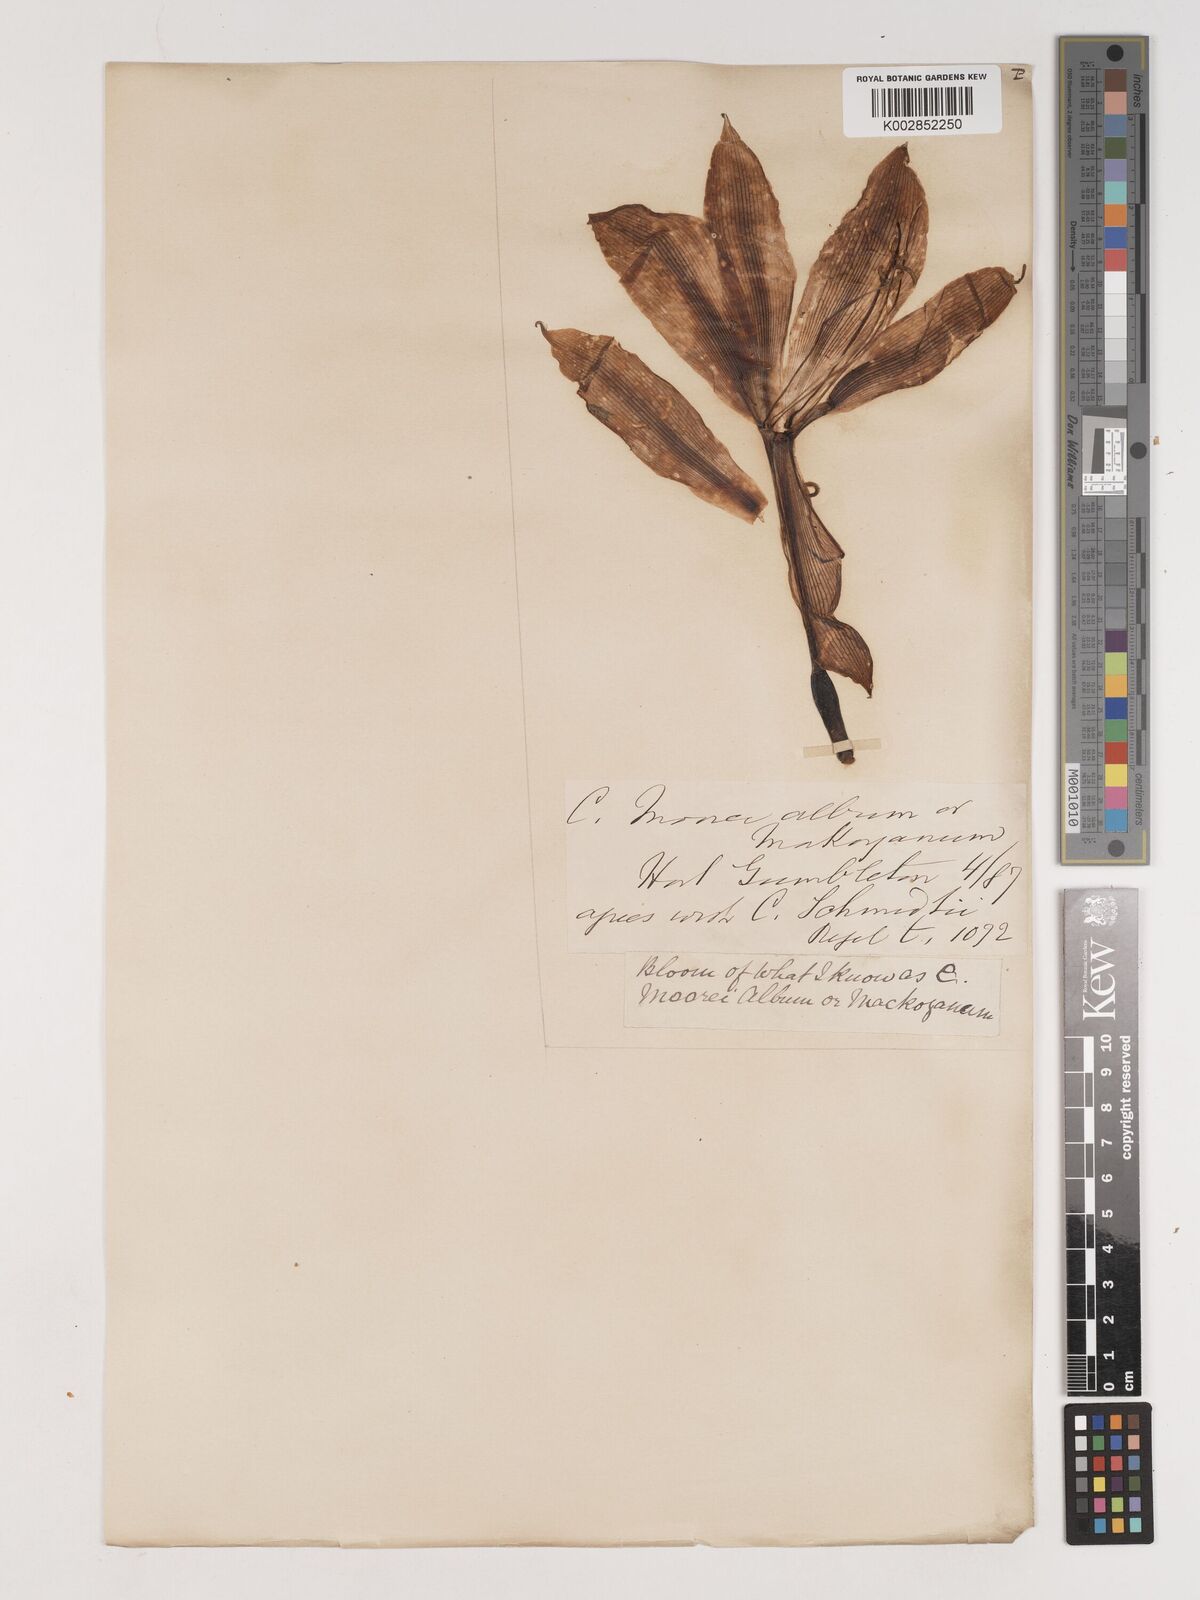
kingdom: Plantae
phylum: Tracheophyta
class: Liliopsida
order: Asparagales
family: Amaryllidaceae
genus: Crinum
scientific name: Crinum moorei
